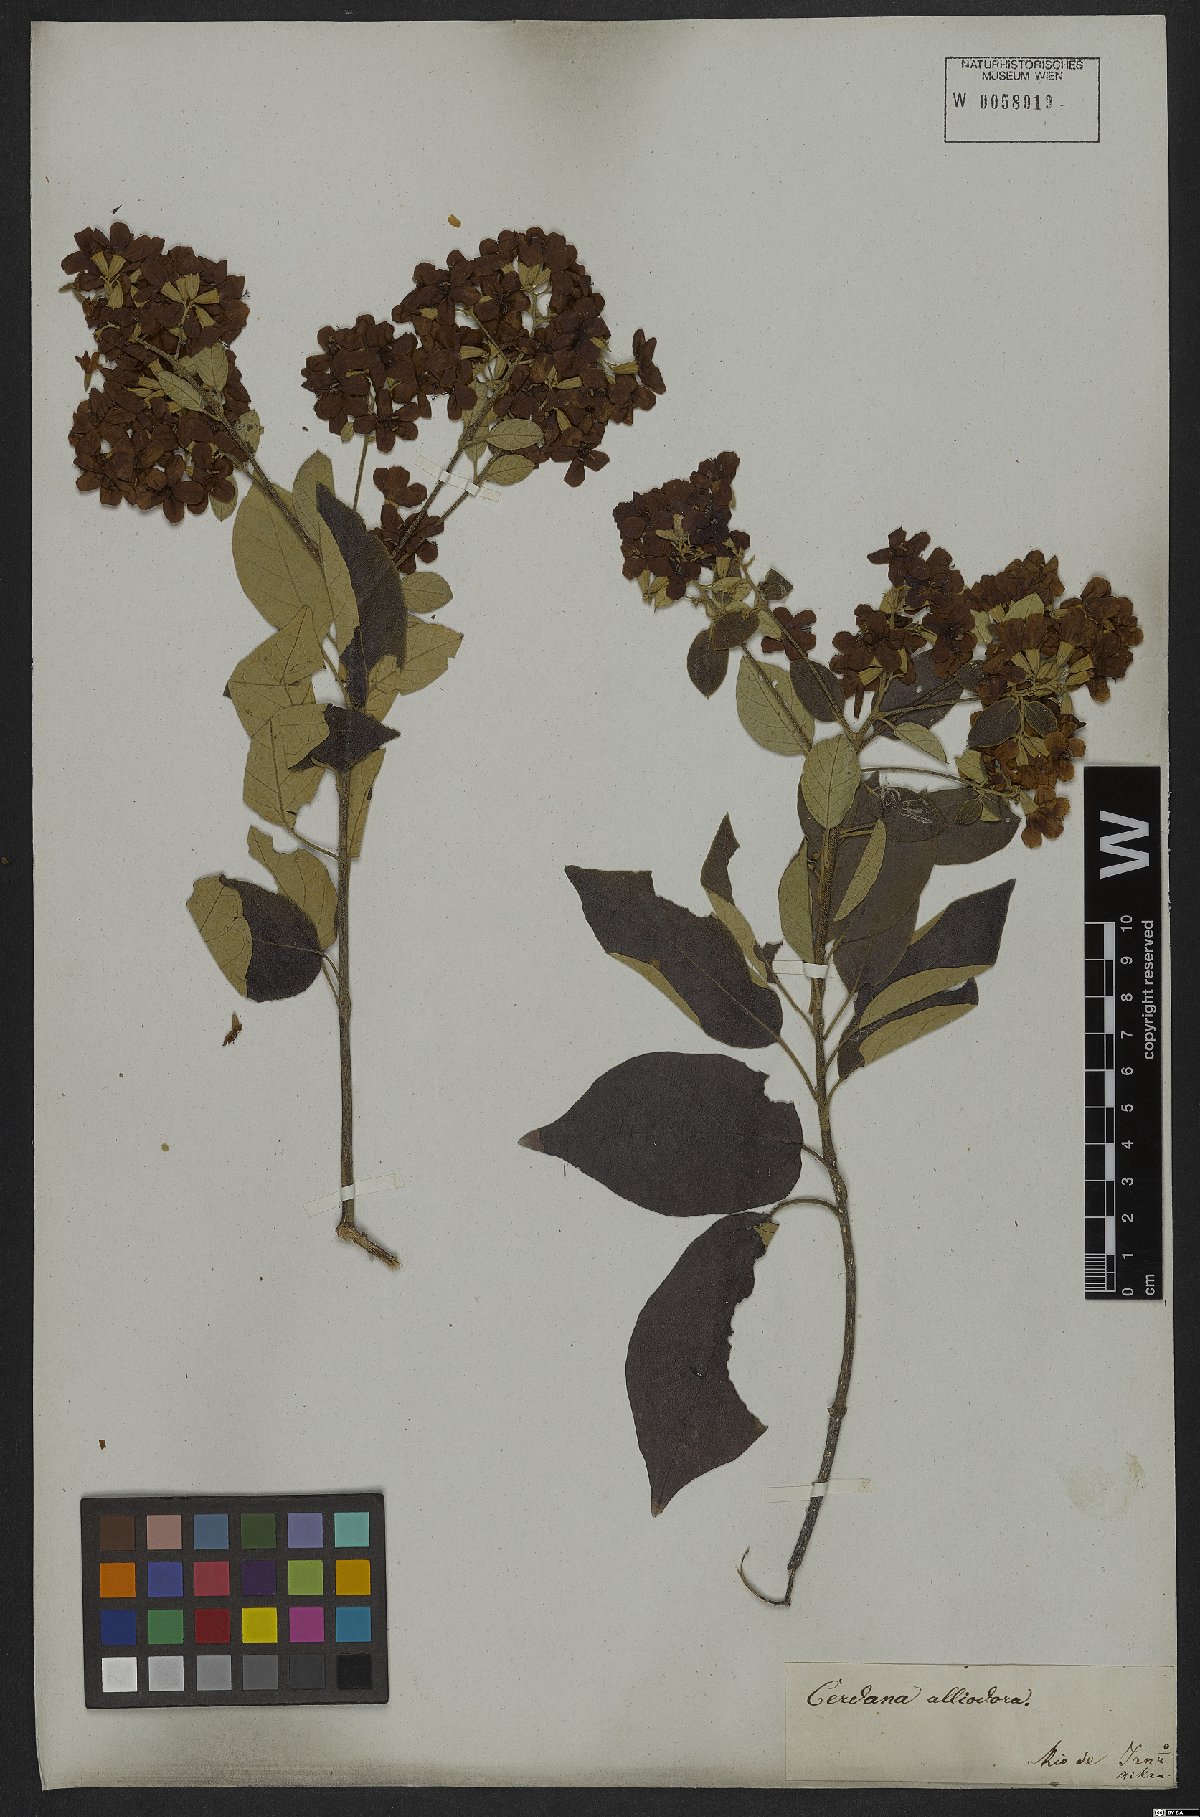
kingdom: Plantae
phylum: Tracheophyta
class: Magnoliopsida
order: Boraginales
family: Cordiaceae
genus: Cordia
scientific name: Cordia alliodora
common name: Spanish elm
